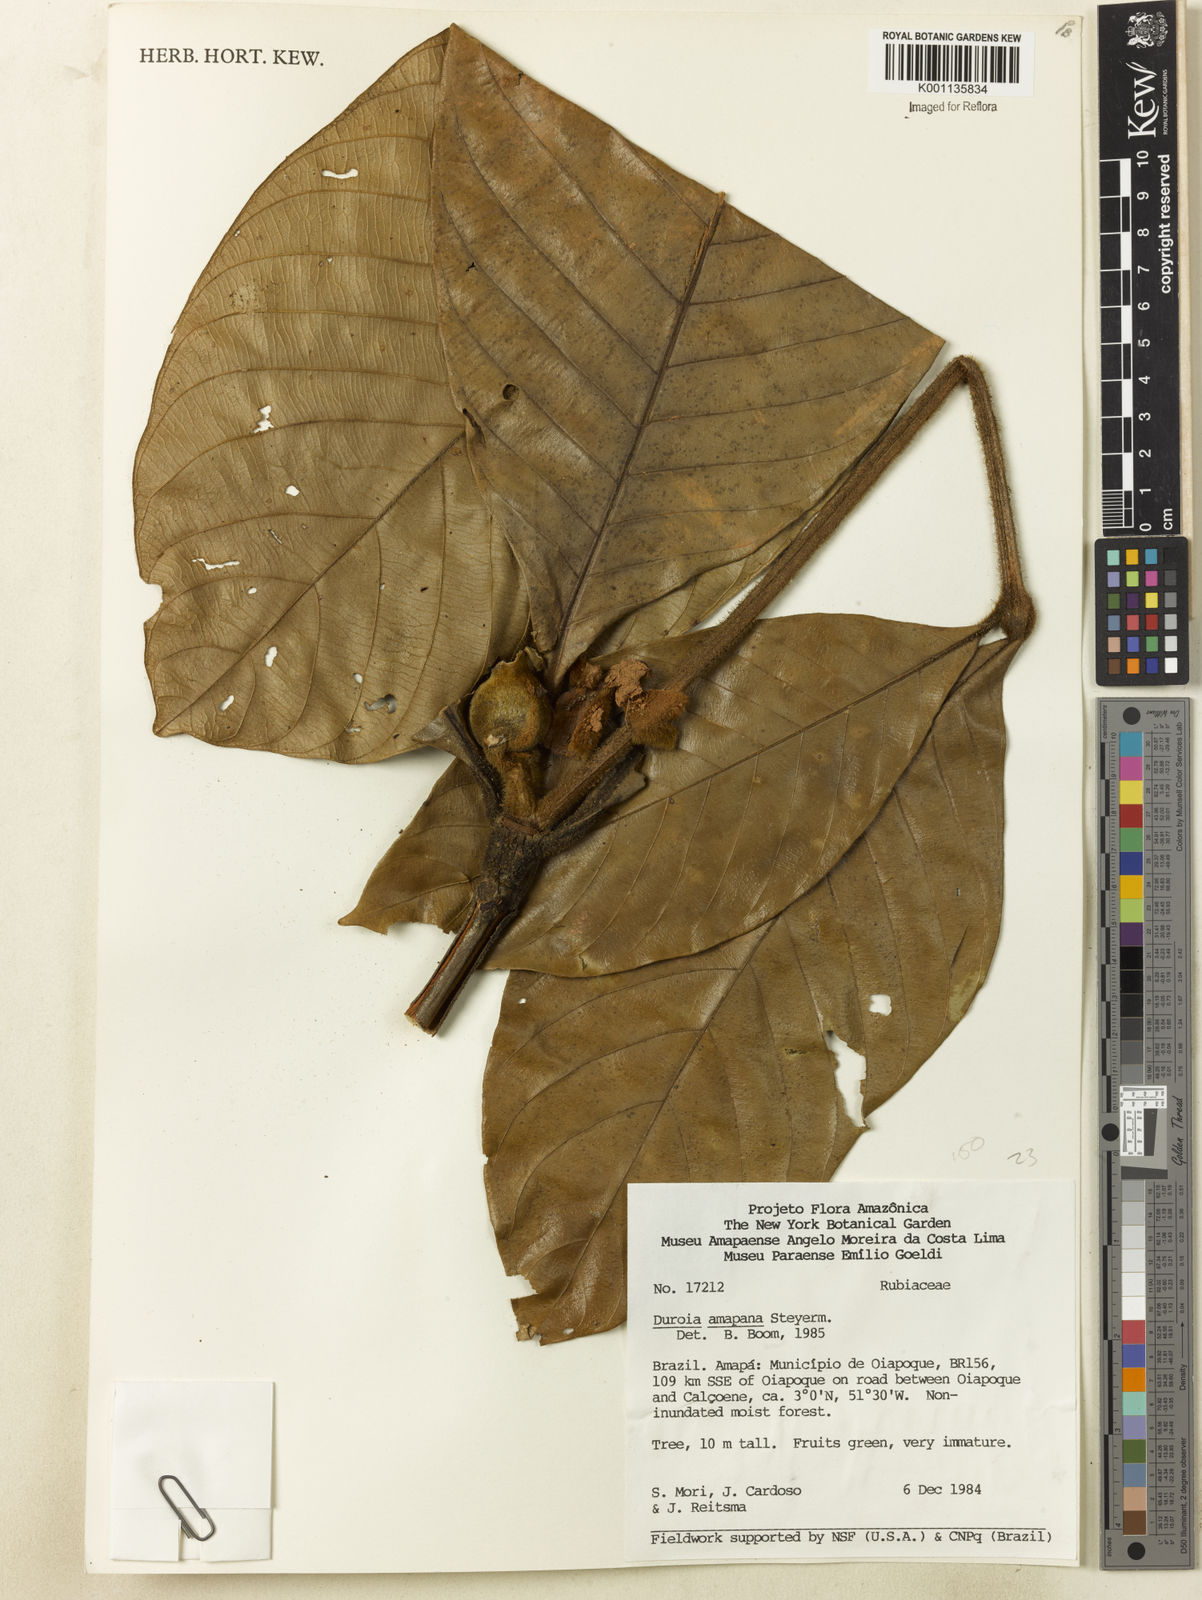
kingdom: Plantae
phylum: Tracheophyta
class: Magnoliopsida
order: Gentianales
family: Rubiaceae
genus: Duroia
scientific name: Duroia amapana
